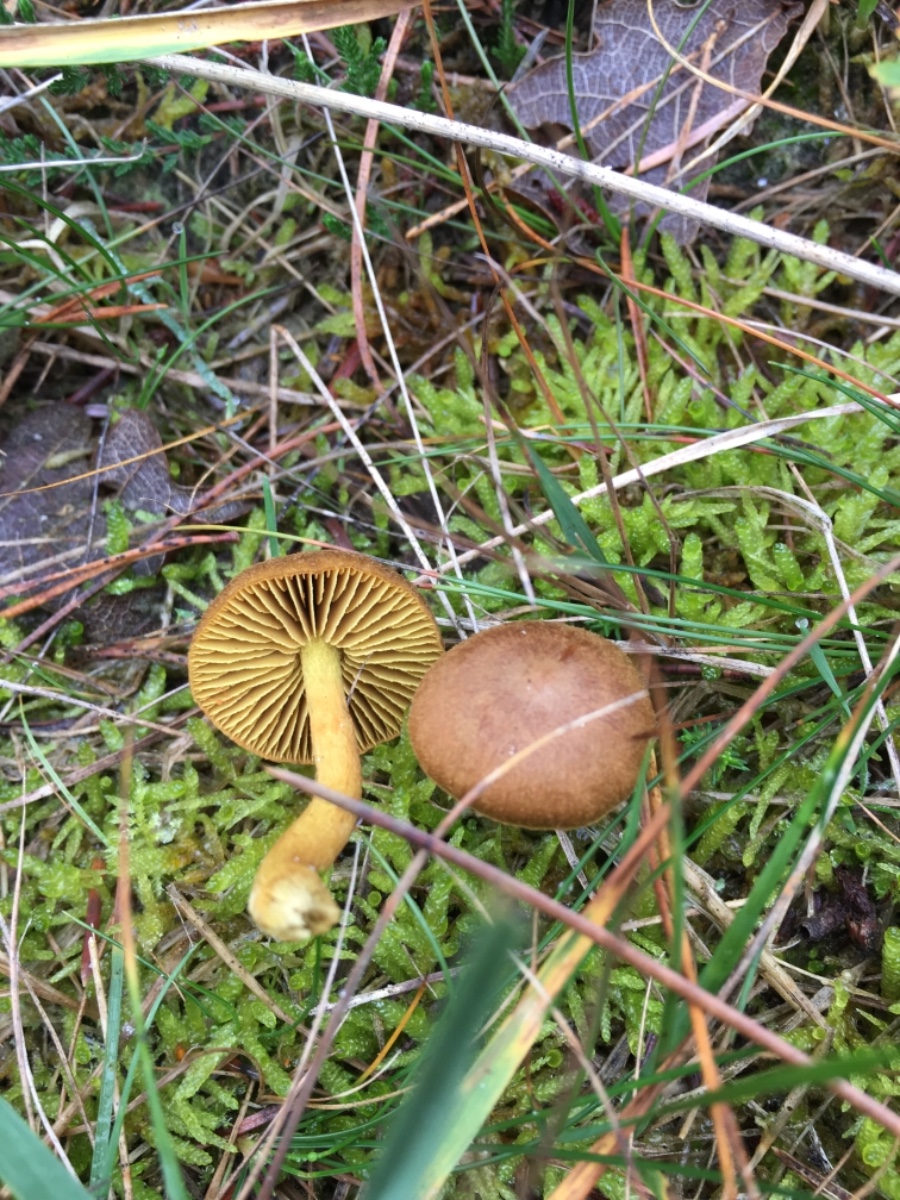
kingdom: Fungi
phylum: Basidiomycota
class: Agaricomycetes
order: Agaricales
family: Cortinariaceae
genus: Cortinarius
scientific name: Cortinarius
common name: gulbladet slørhat
